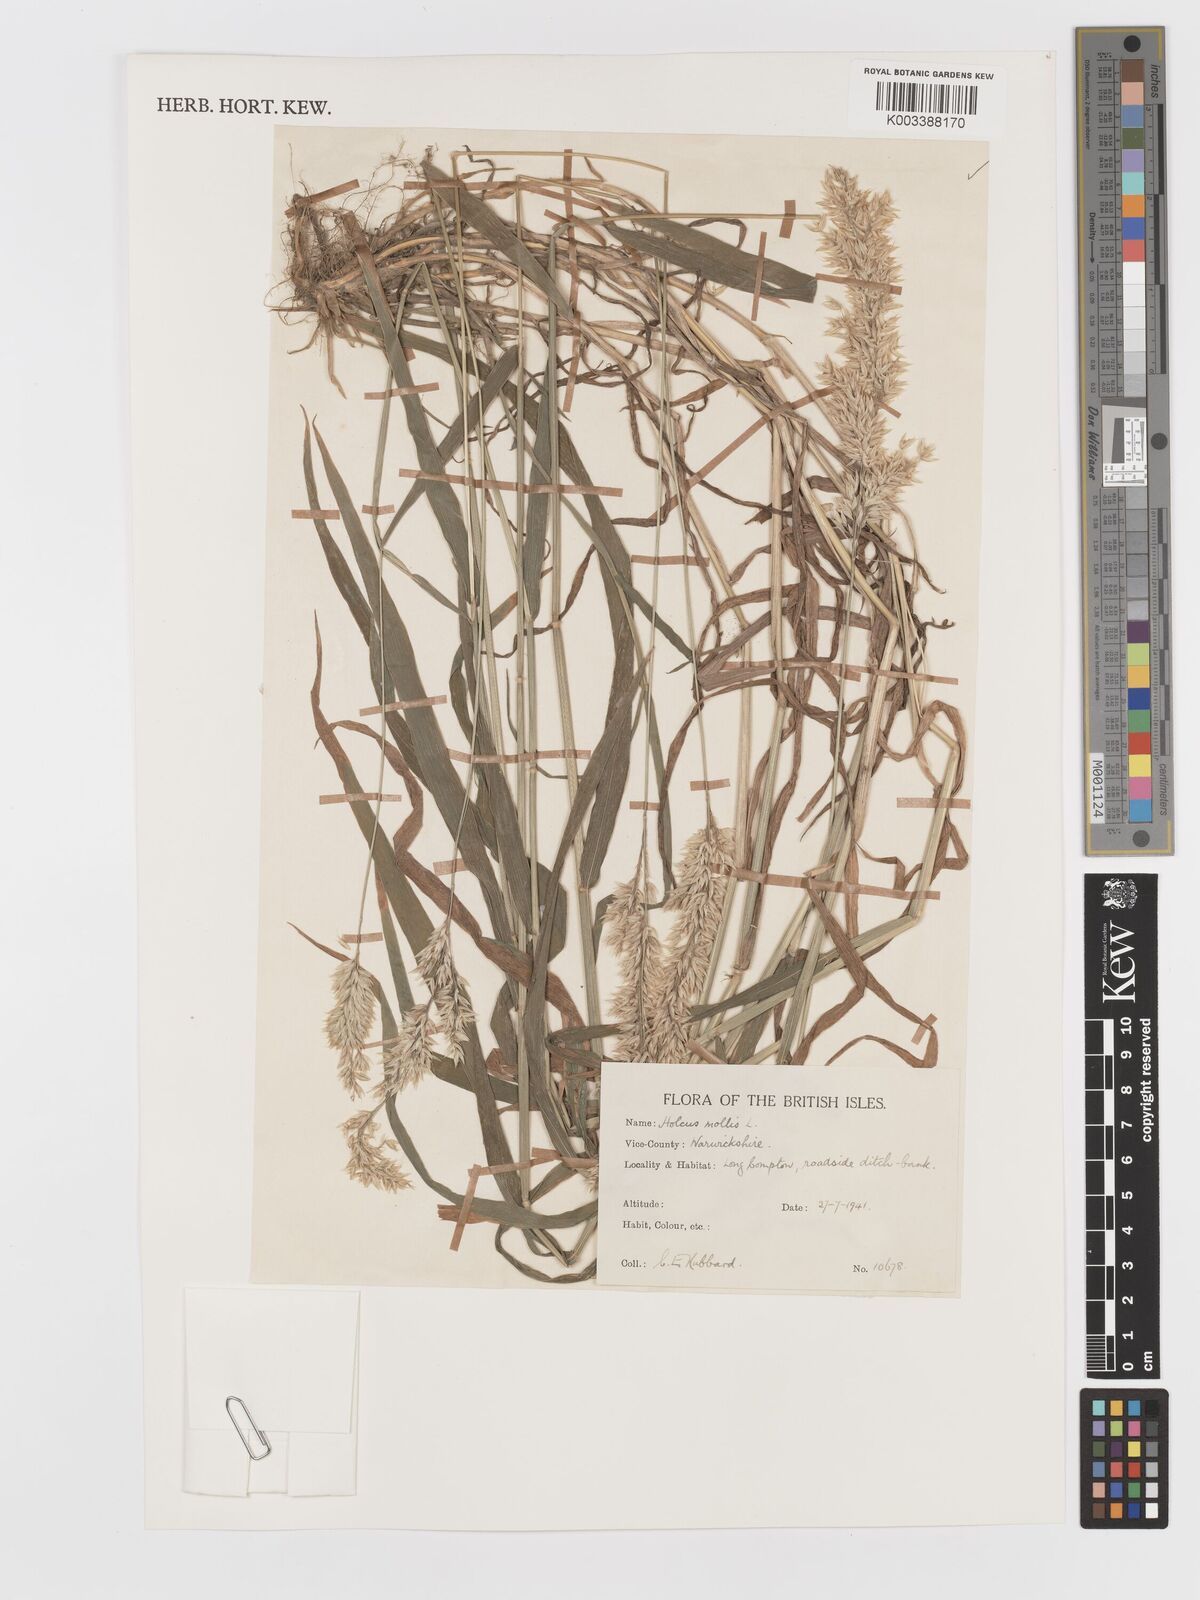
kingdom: Plantae
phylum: Tracheophyta
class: Liliopsida
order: Poales
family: Poaceae
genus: Holcus
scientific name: Holcus mollis
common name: Creeping velvetgrass
